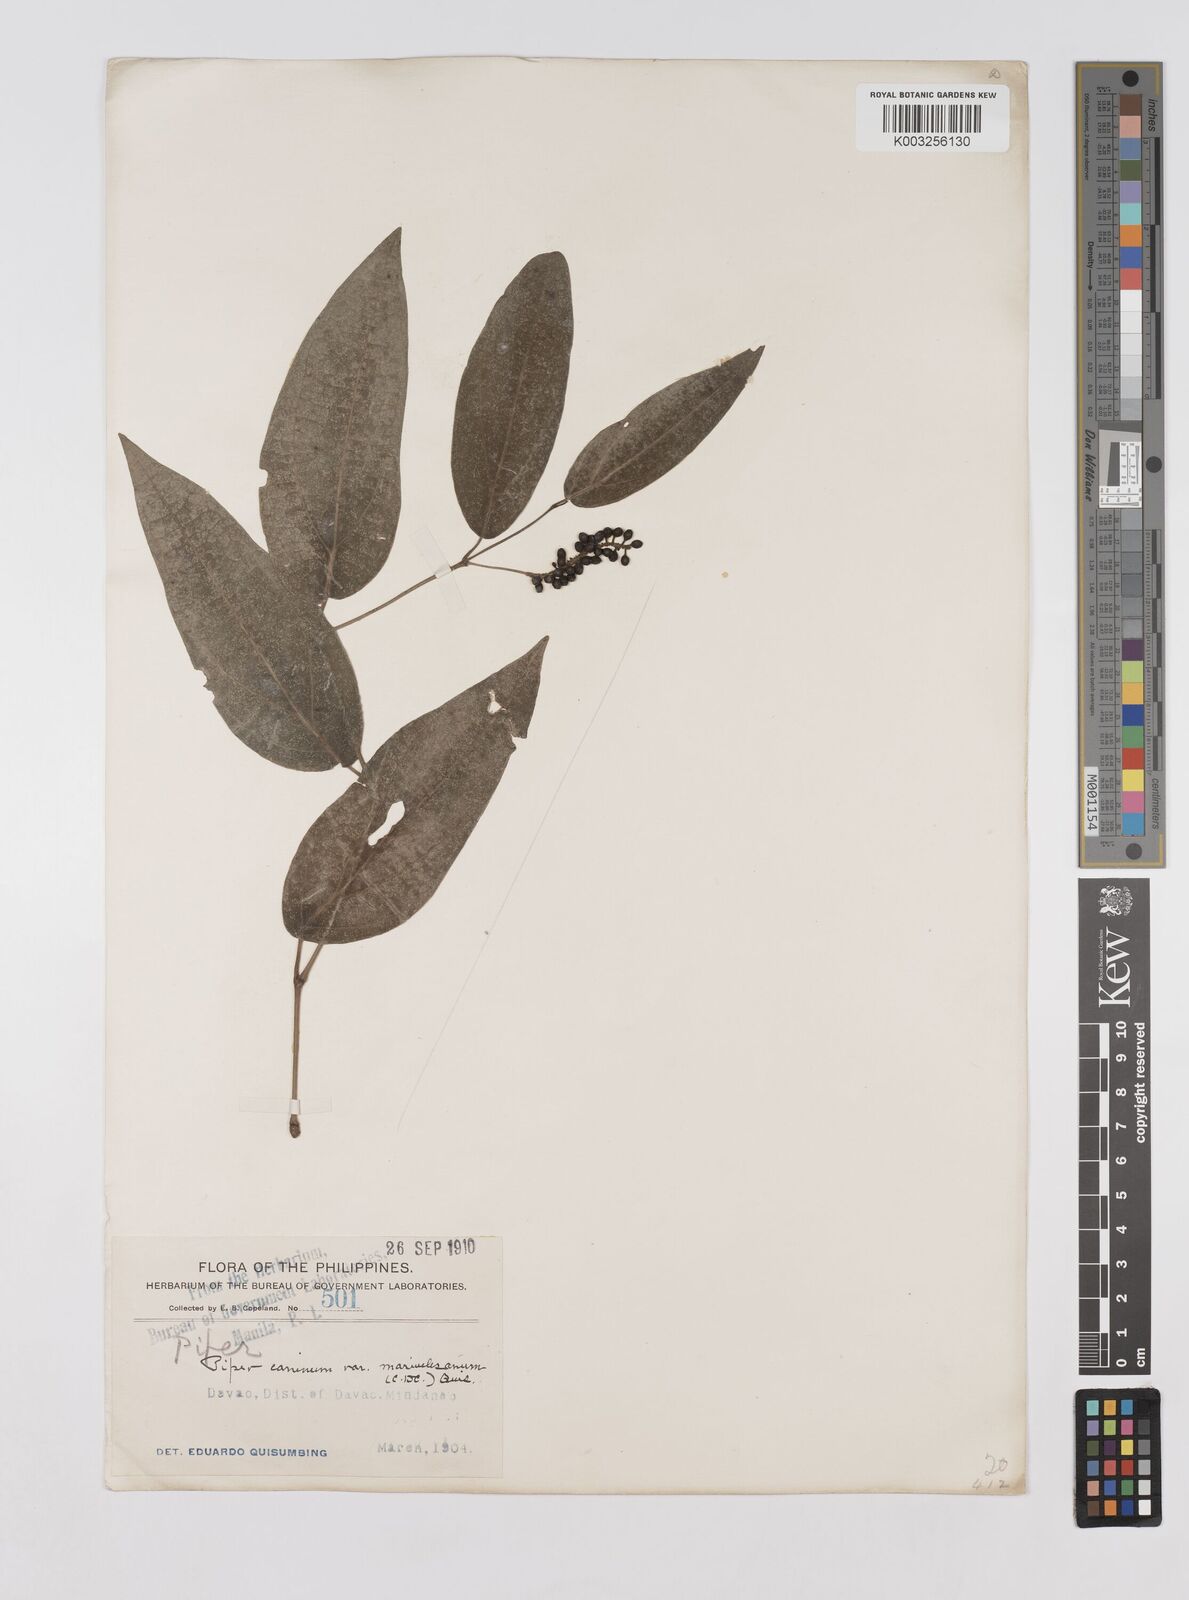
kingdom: Plantae
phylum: Tracheophyta
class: Magnoliopsida
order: Piperales
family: Piperaceae
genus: Piper
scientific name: Piper lanatum
